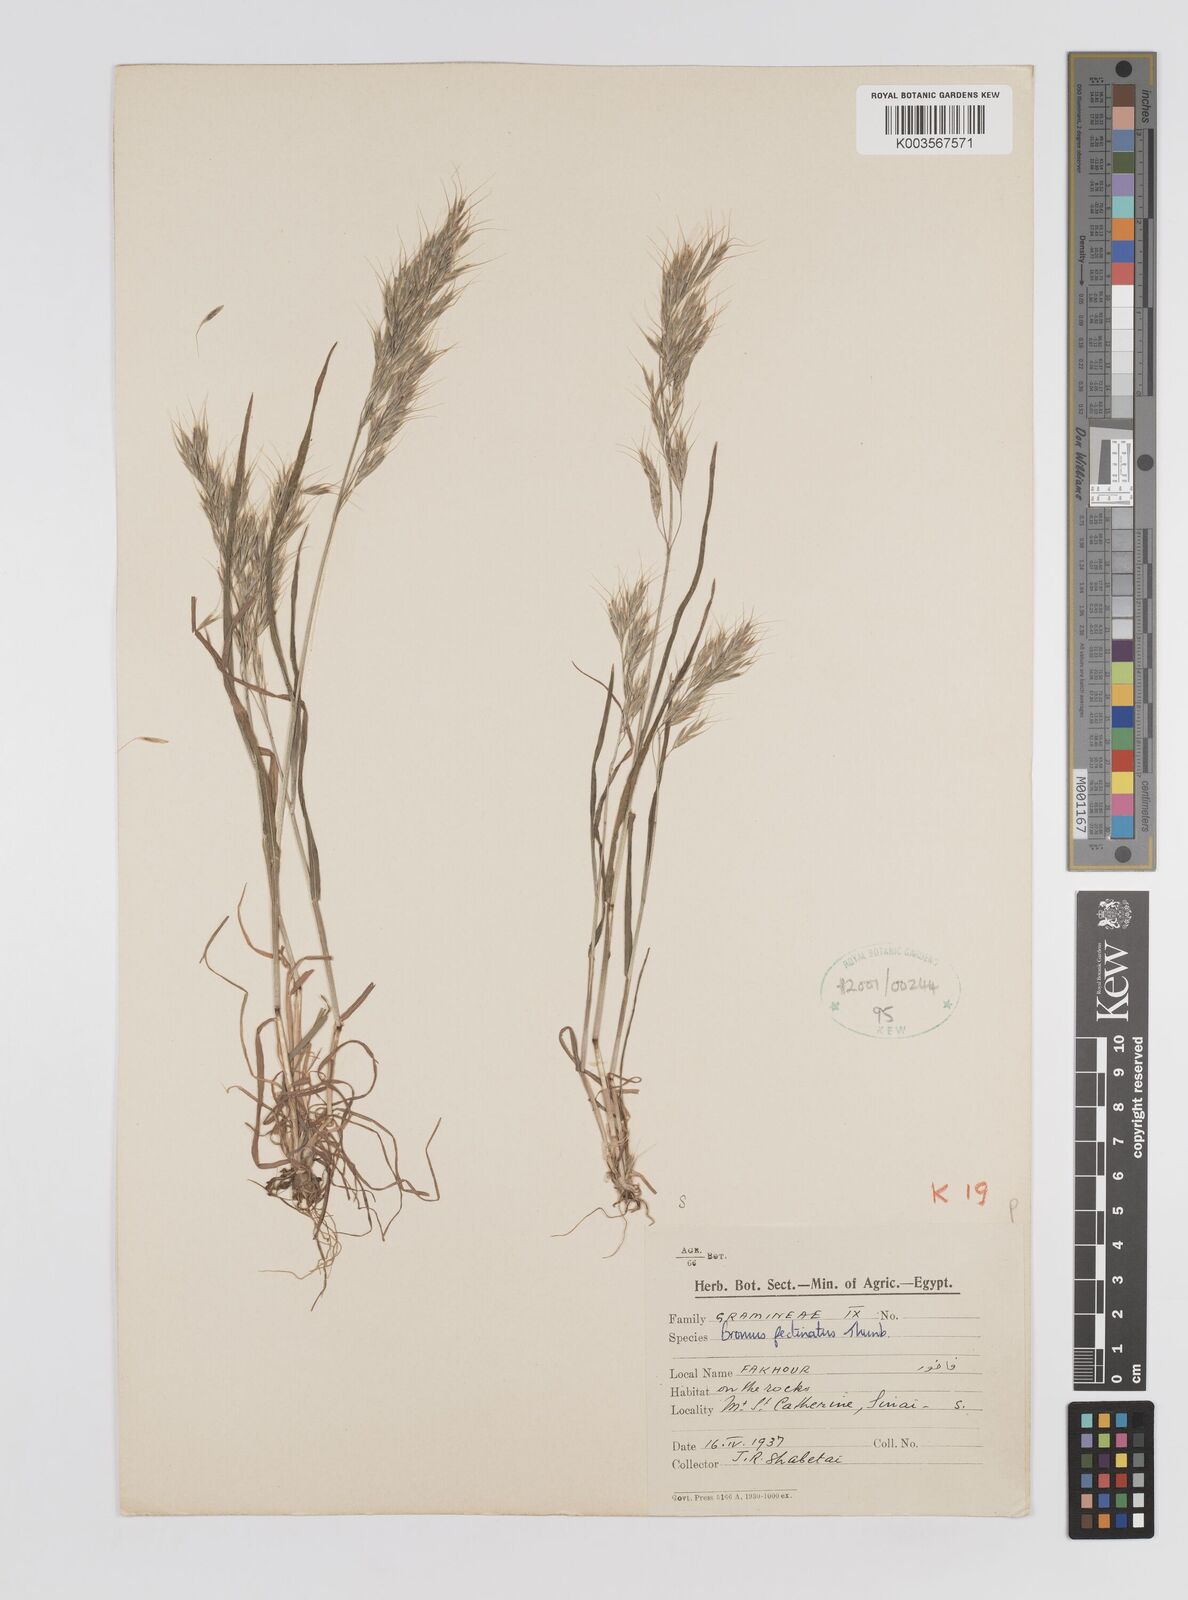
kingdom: Plantae
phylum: Tracheophyta
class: Liliopsida
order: Poales
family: Poaceae
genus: Bromus
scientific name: Bromus pectinatus
